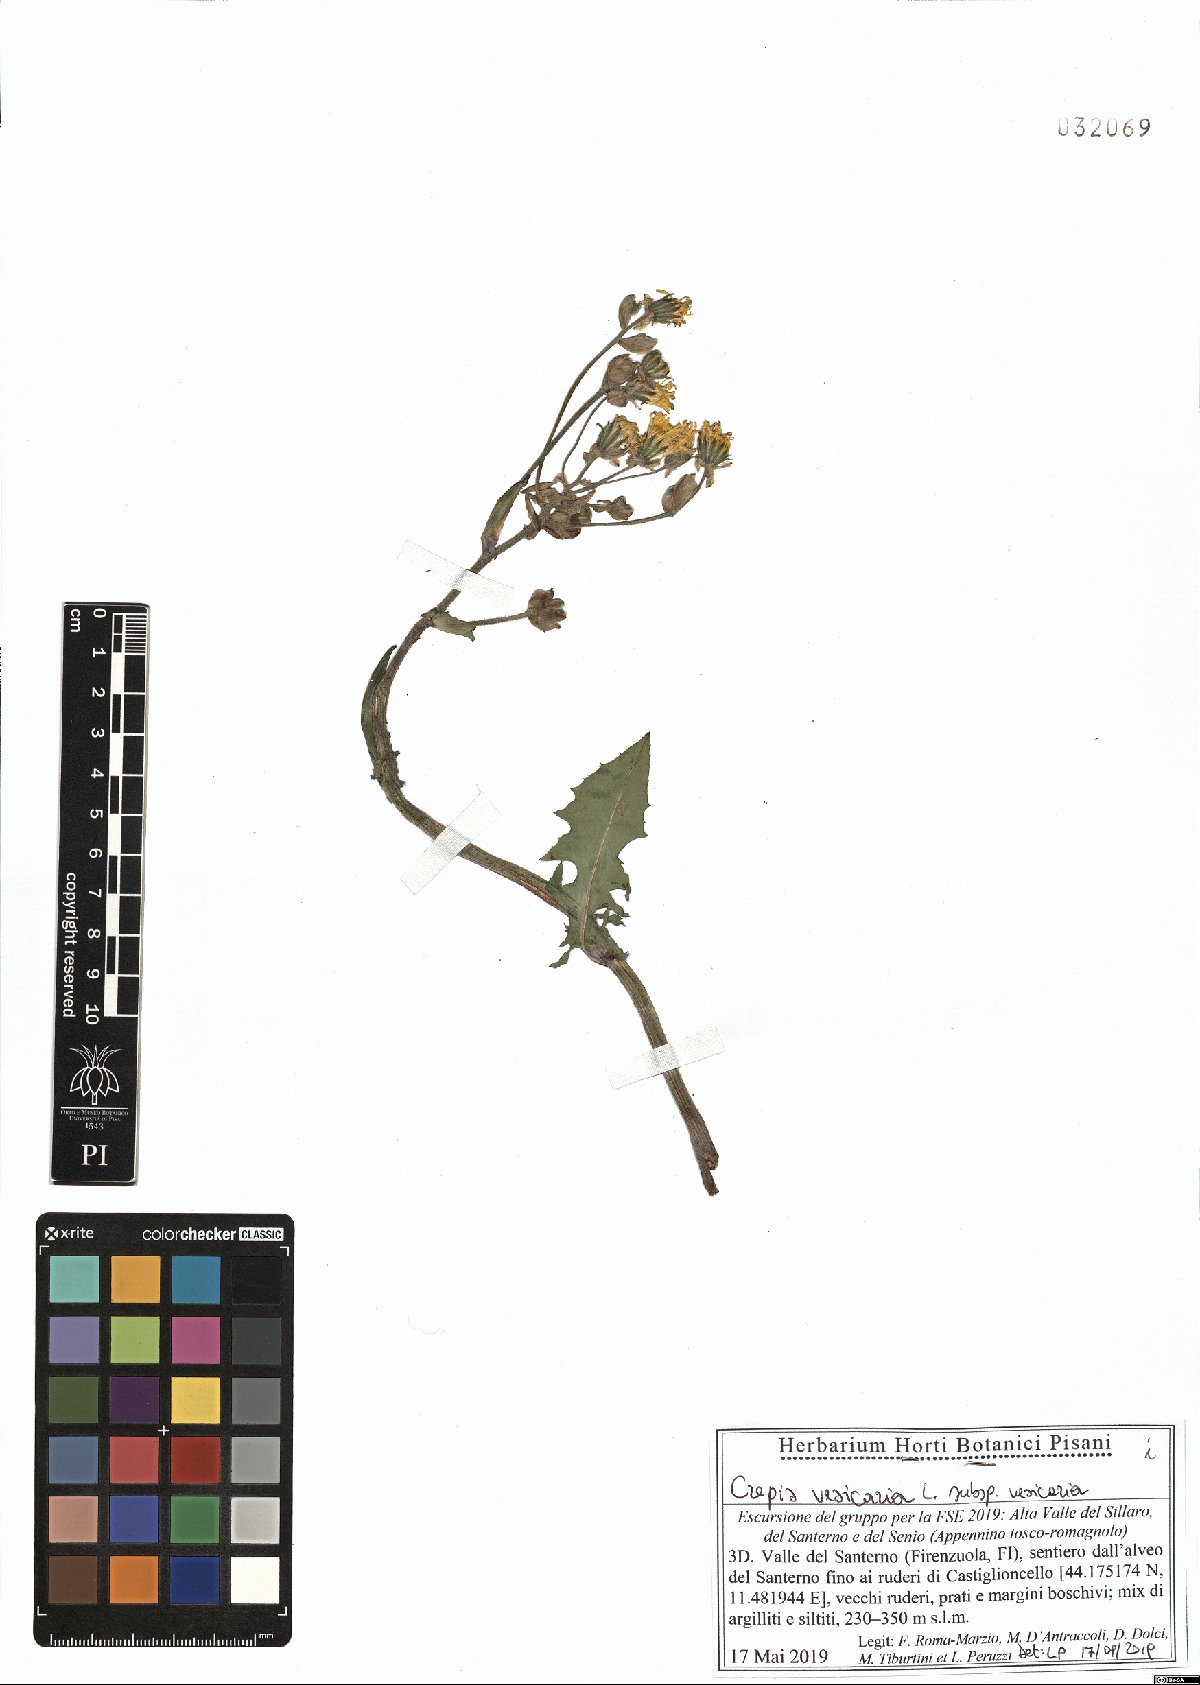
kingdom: Plantae
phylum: Tracheophyta
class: Magnoliopsida
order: Asterales
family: Asteraceae
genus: Crepis
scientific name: Crepis vesicaria
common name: Beaked hawksbeard
